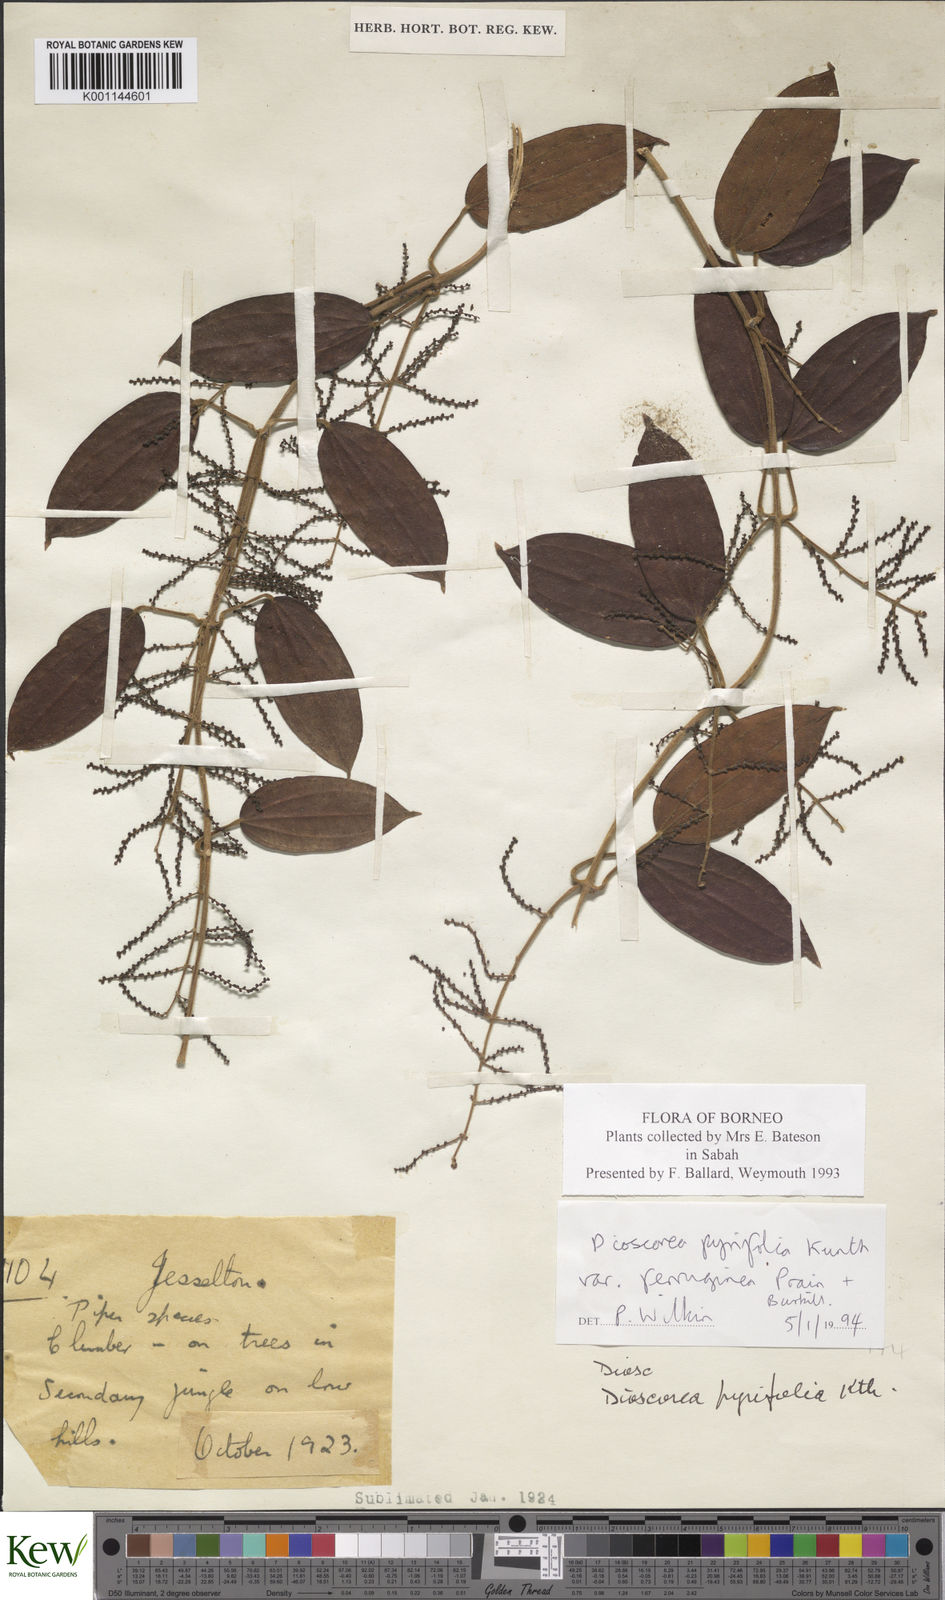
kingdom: Plantae
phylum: Tracheophyta
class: Liliopsida
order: Dioscoreales
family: Dioscoreaceae
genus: Dioscorea
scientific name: Dioscorea pyrifolia
